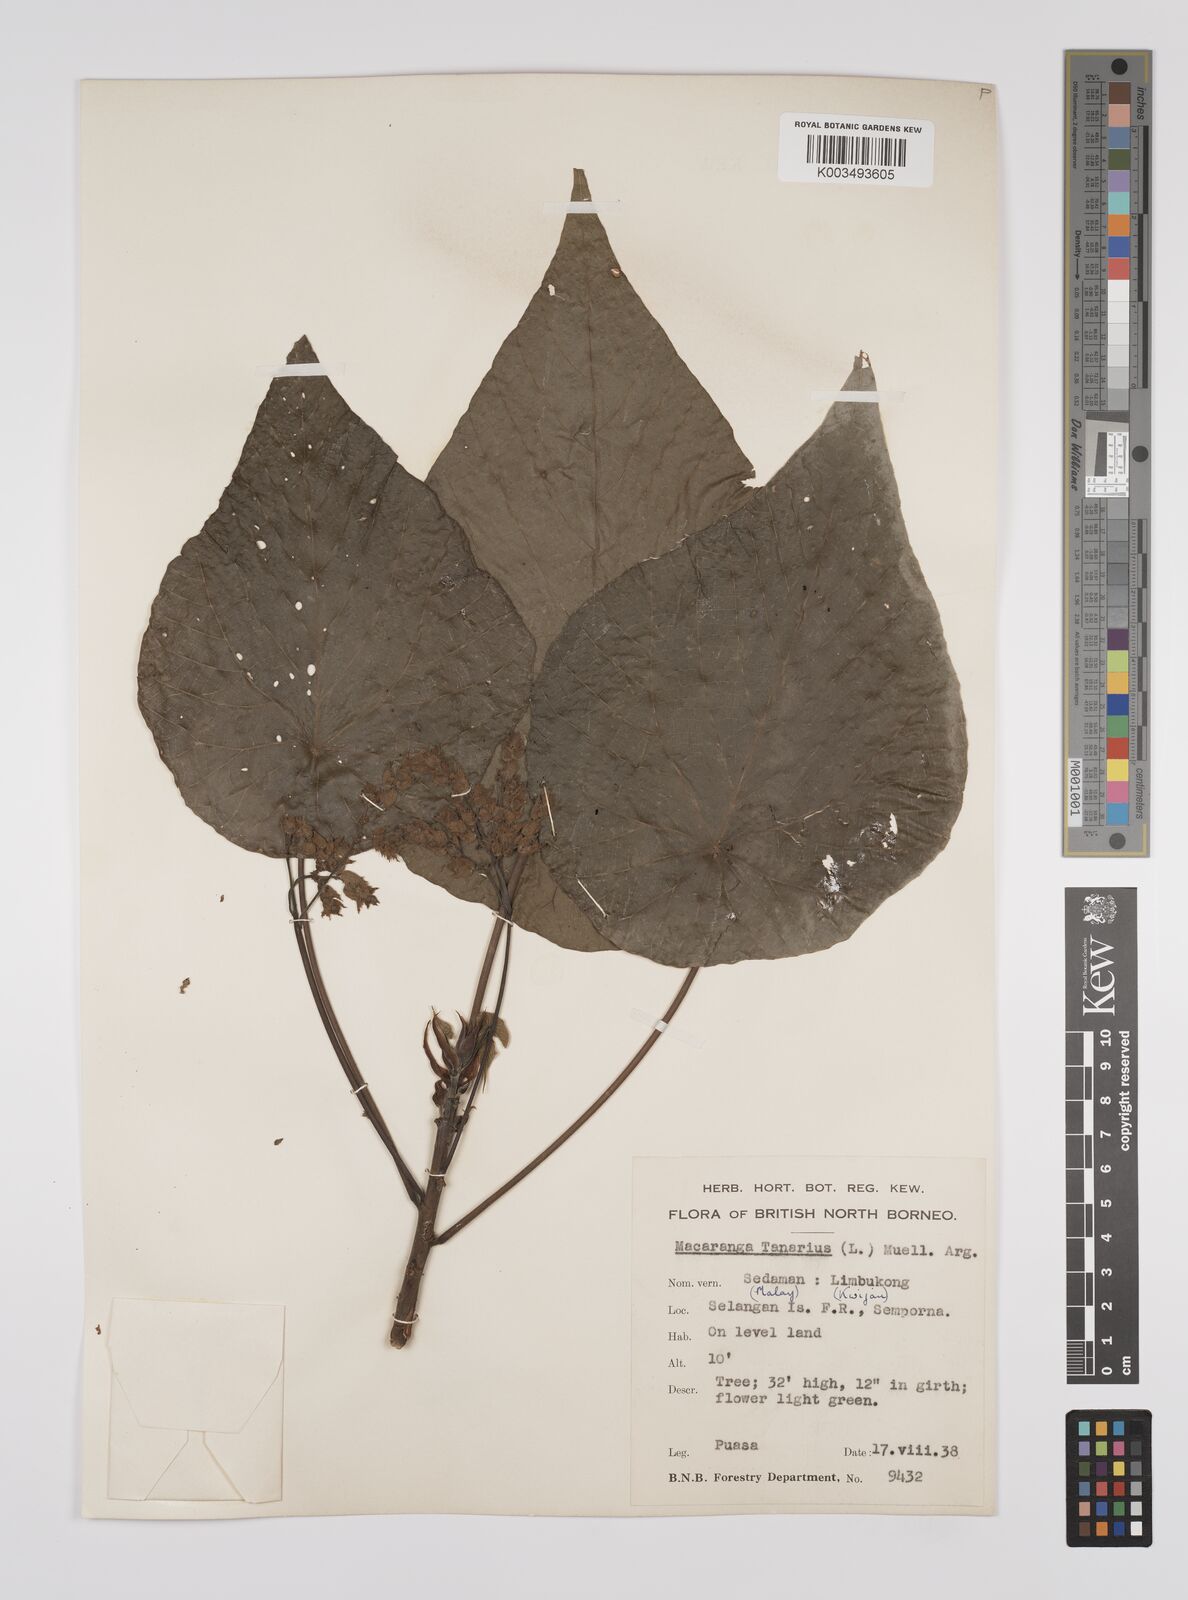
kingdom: Plantae
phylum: Tracheophyta
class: Magnoliopsida
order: Malpighiales
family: Euphorbiaceae
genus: Macaranga
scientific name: Macaranga tanarius
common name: Parasol leaf tree
